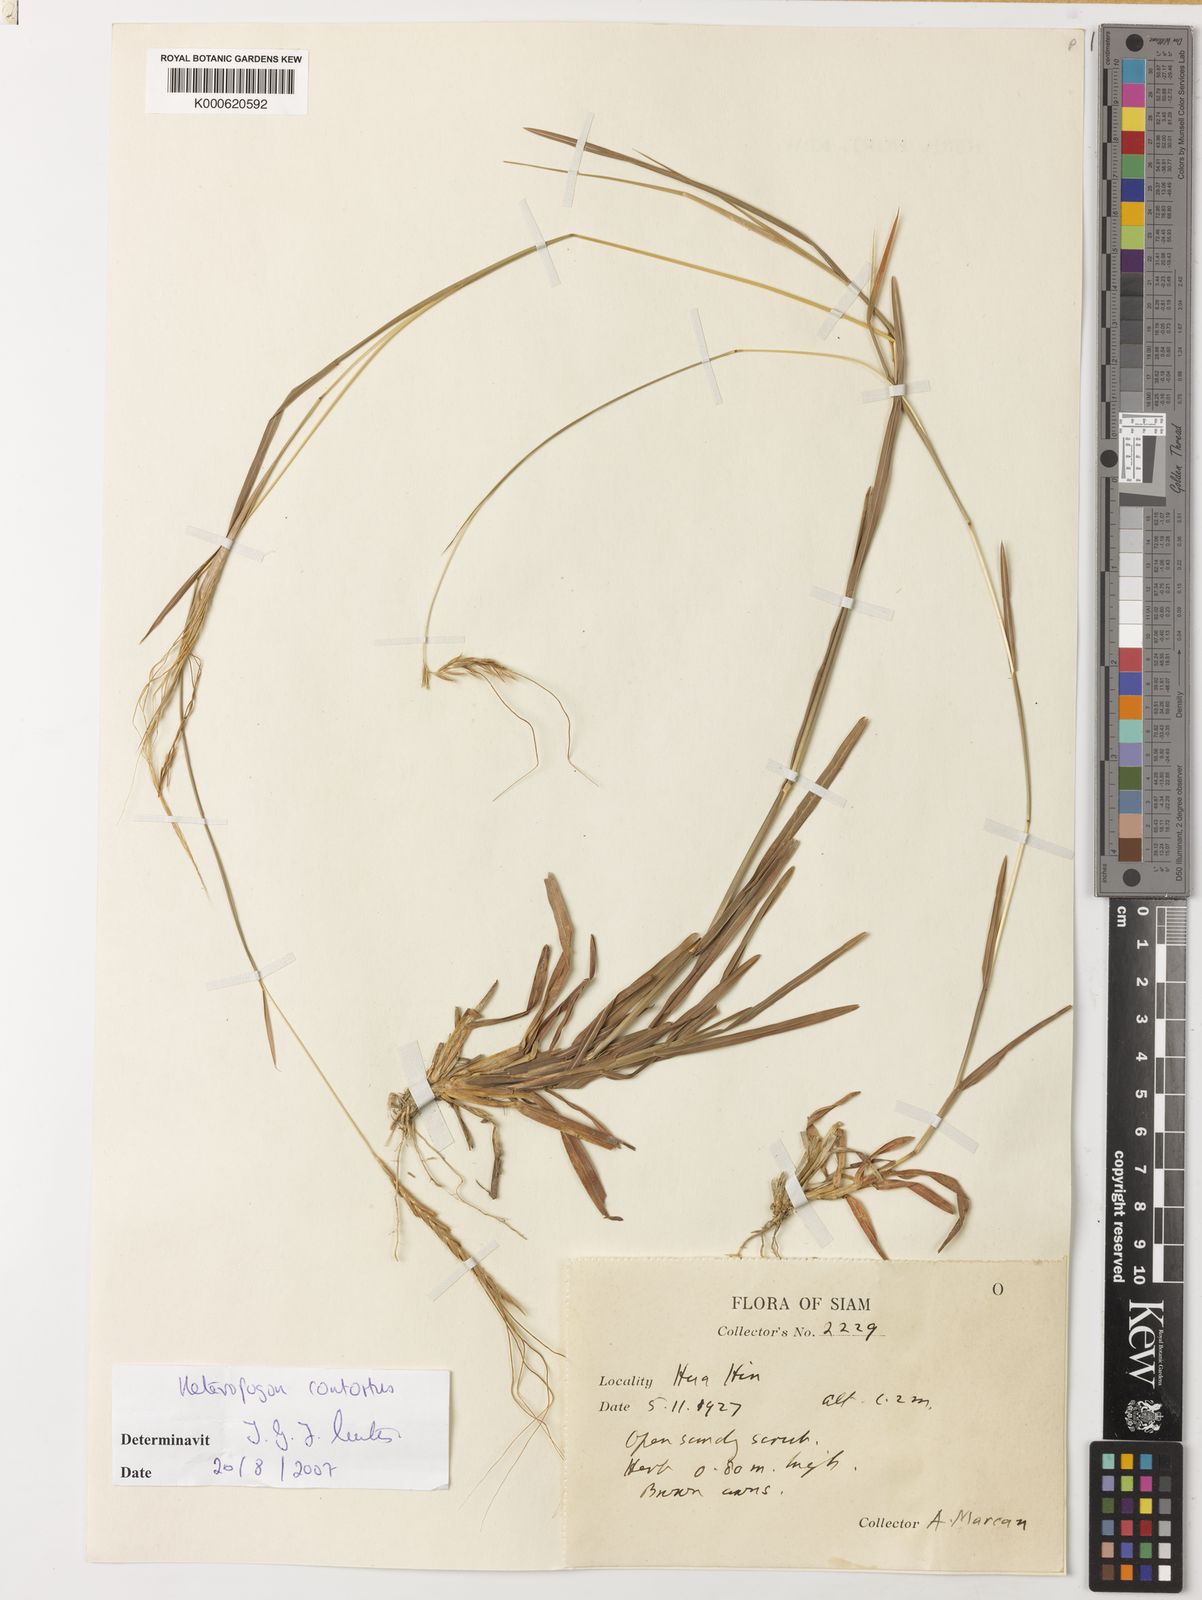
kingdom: Plantae
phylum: Tracheophyta
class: Liliopsida
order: Poales
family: Poaceae
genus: Heteropogon
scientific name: Heteropogon contortus
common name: Tanglehead
